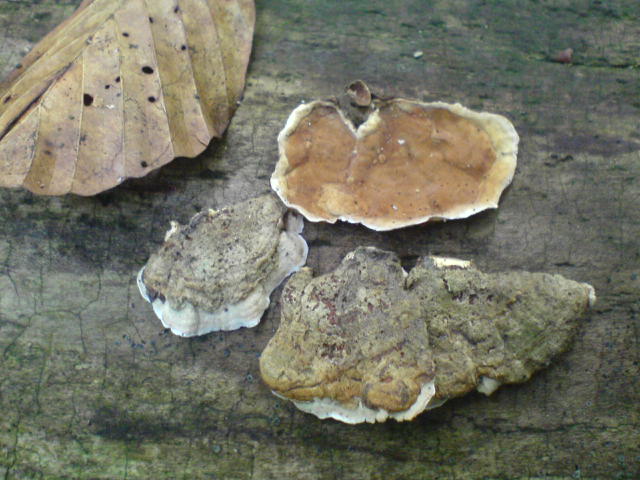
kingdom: Fungi
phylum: Basidiomycota
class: Agaricomycetes
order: Russulales
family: Stereaceae
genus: Stereum
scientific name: Stereum hirsutum
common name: håret lædersvamp
